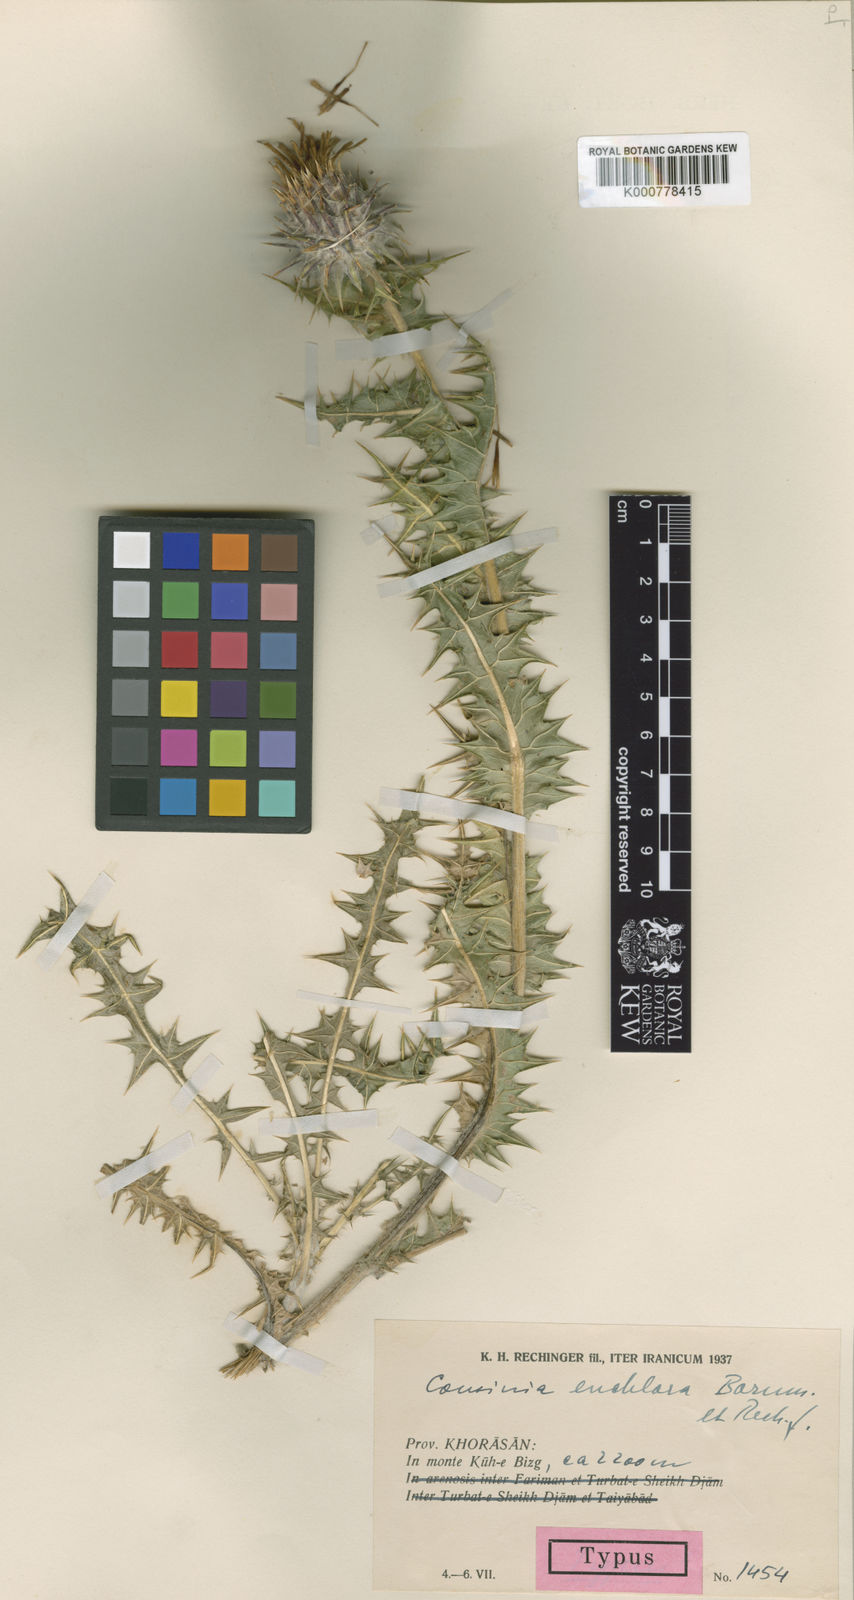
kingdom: Plantae
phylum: Tracheophyta
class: Magnoliopsida
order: Asterales
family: Asteraceae
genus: Cousinia
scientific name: Cousinia euchlora
